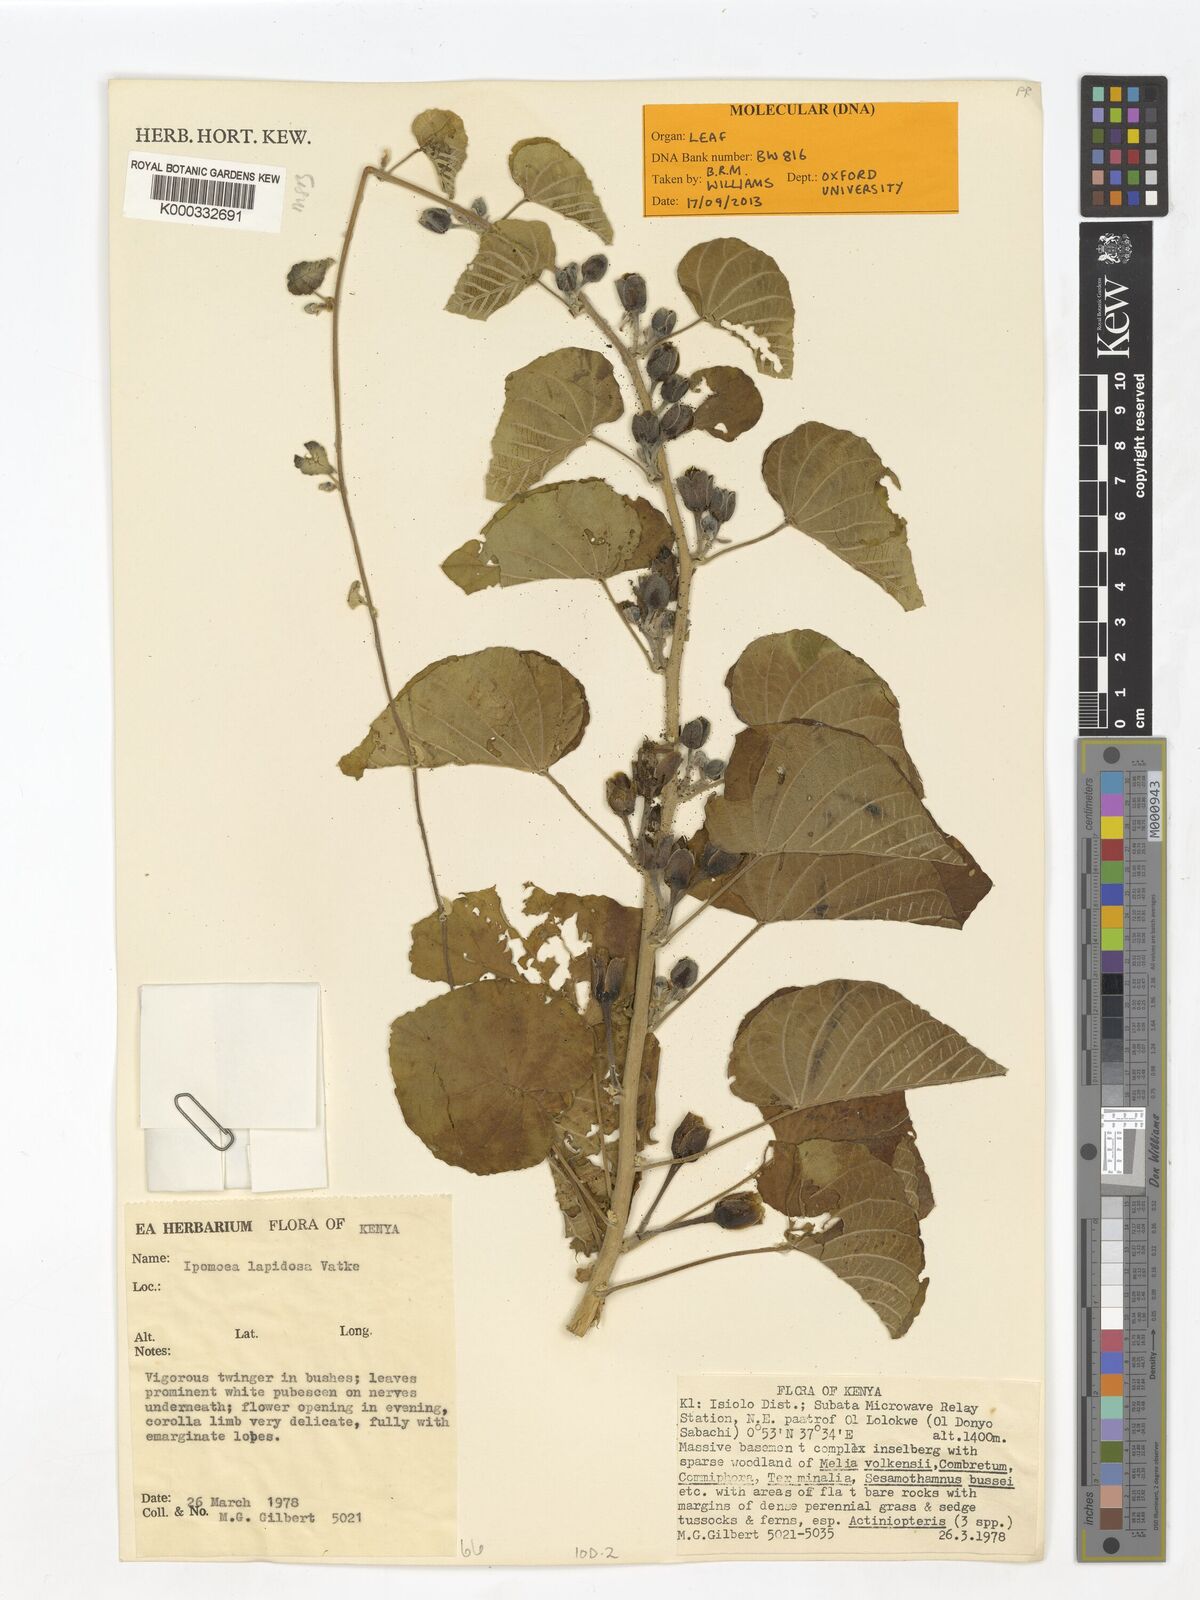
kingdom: Plantae
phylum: Tracheophyta
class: Magnoliopsida
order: Solanales
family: Convolvulaceae
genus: Ipomoea
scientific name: Ipomoea lapidosa
